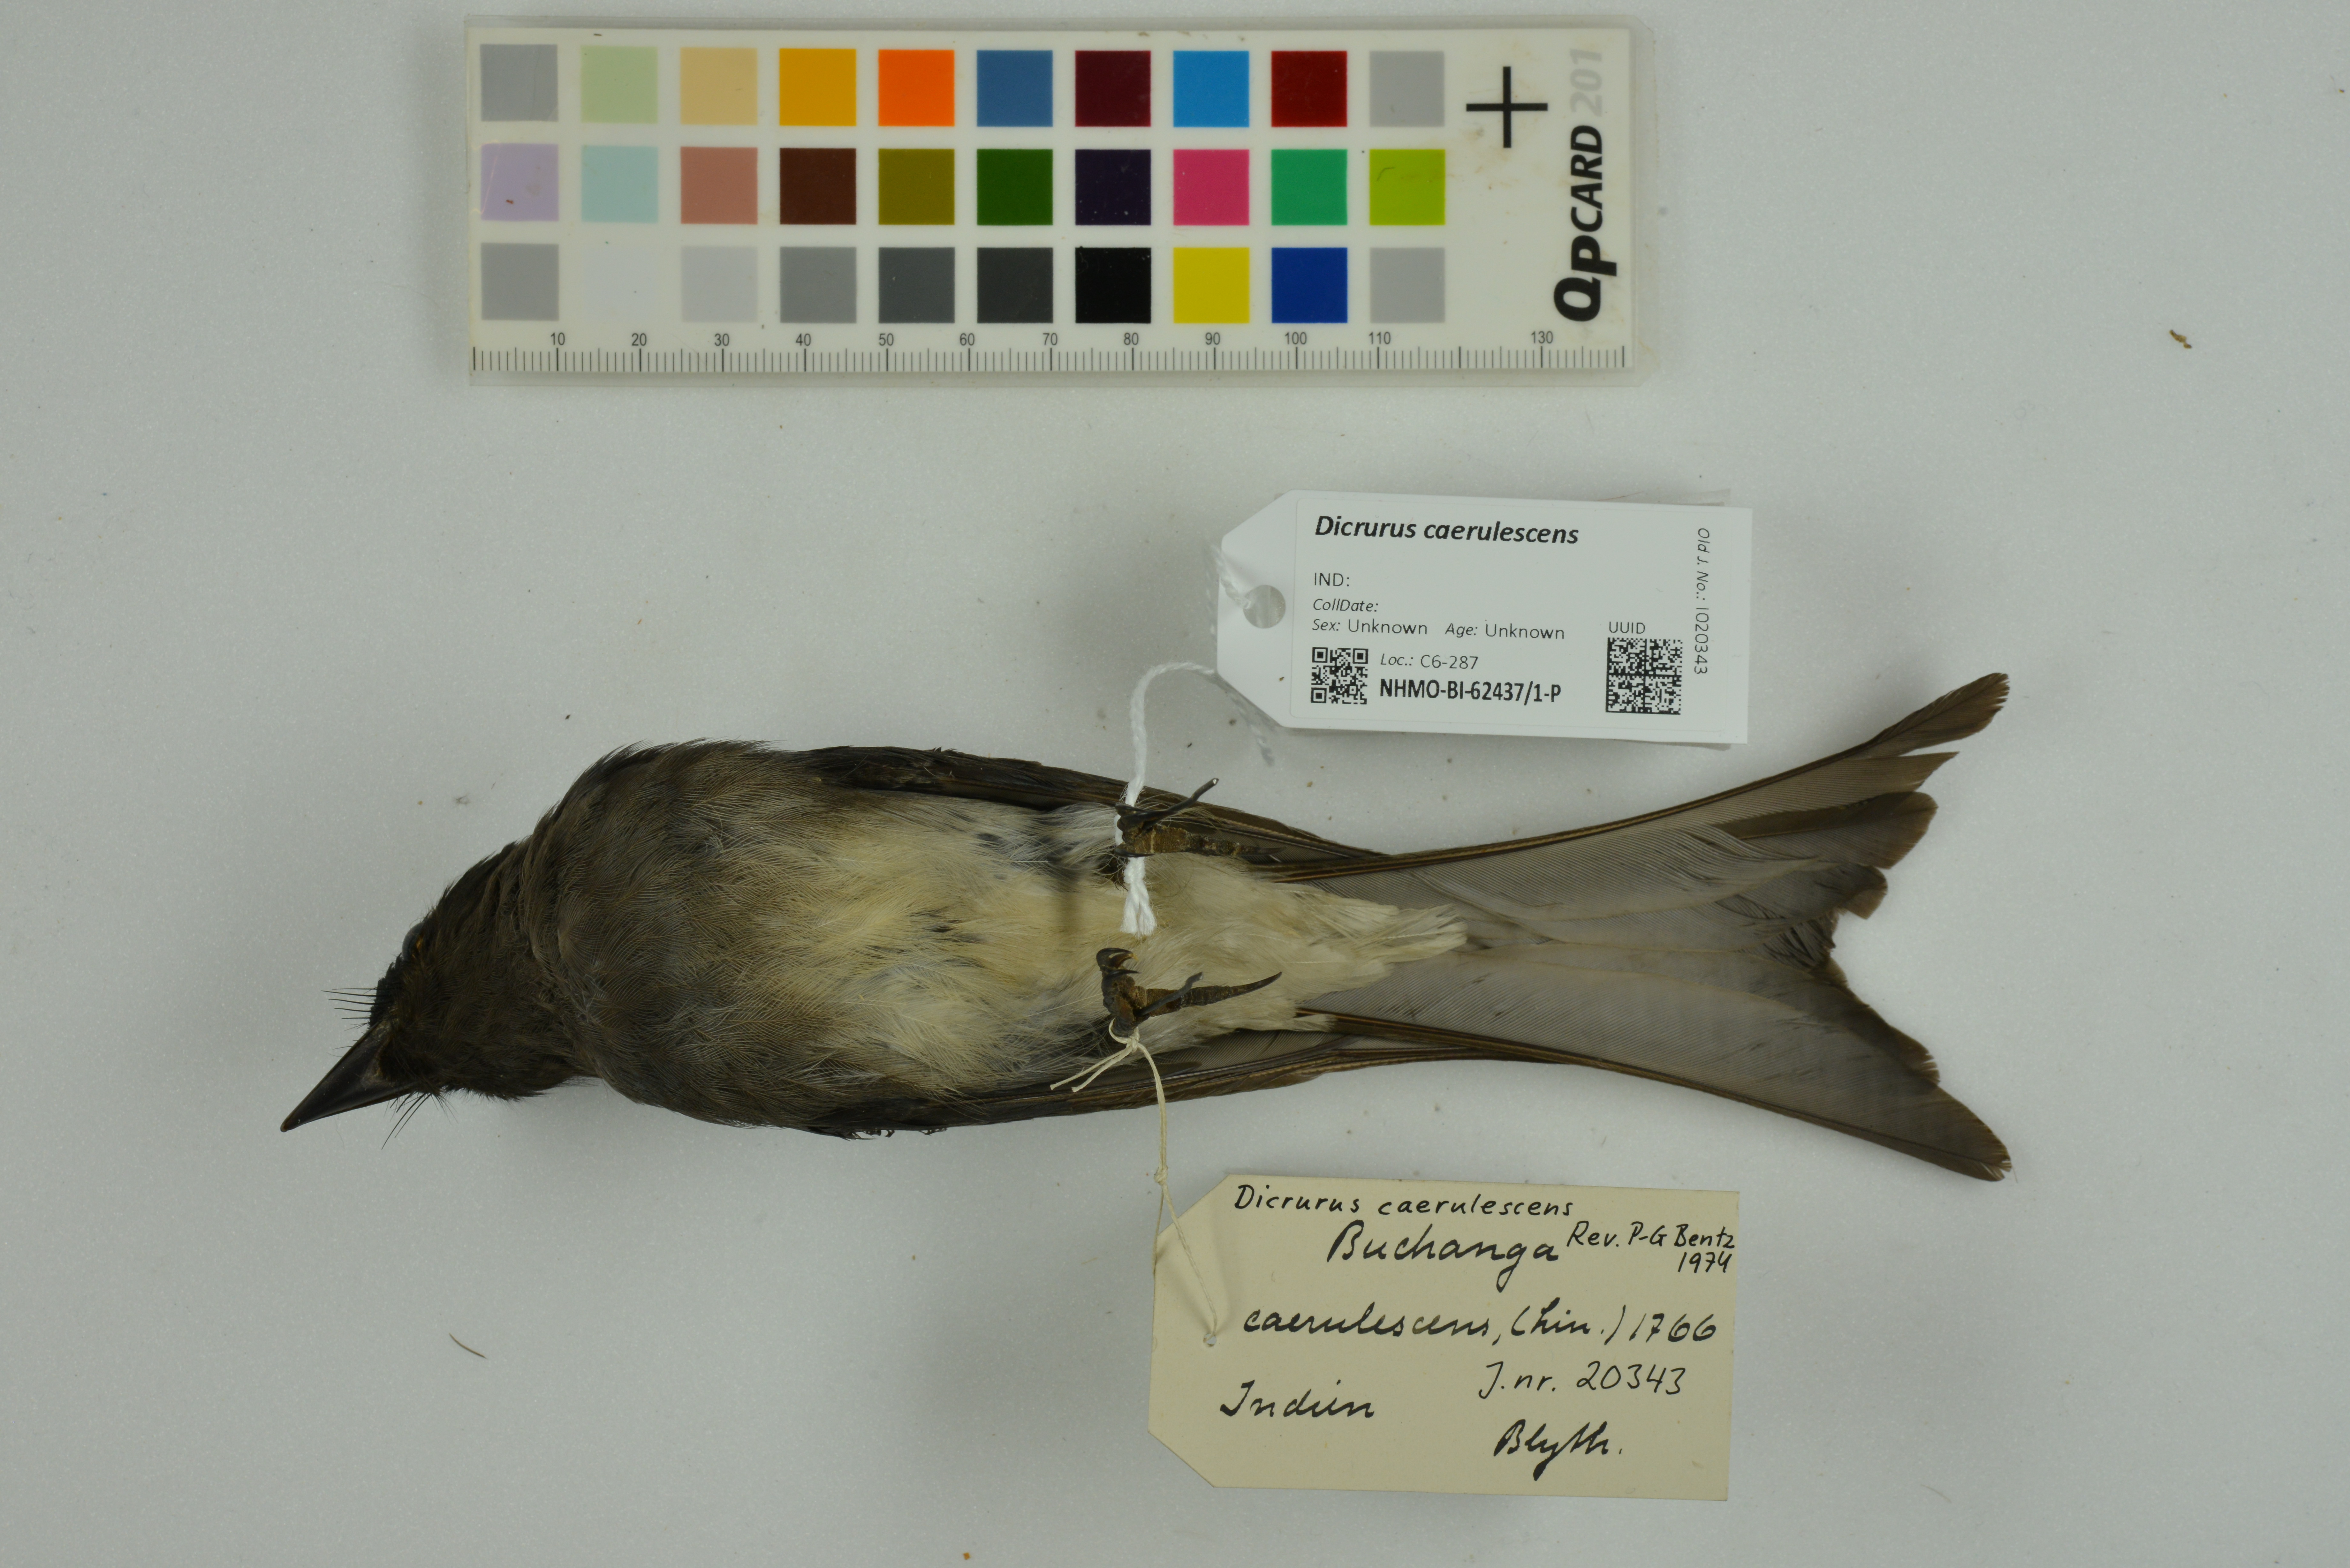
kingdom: Animalia
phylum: Chordata
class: Aves
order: Passeriformes
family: Dicruridae
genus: Dicrurus
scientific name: Dicrurus caerulescens
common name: White-bellied drongo
